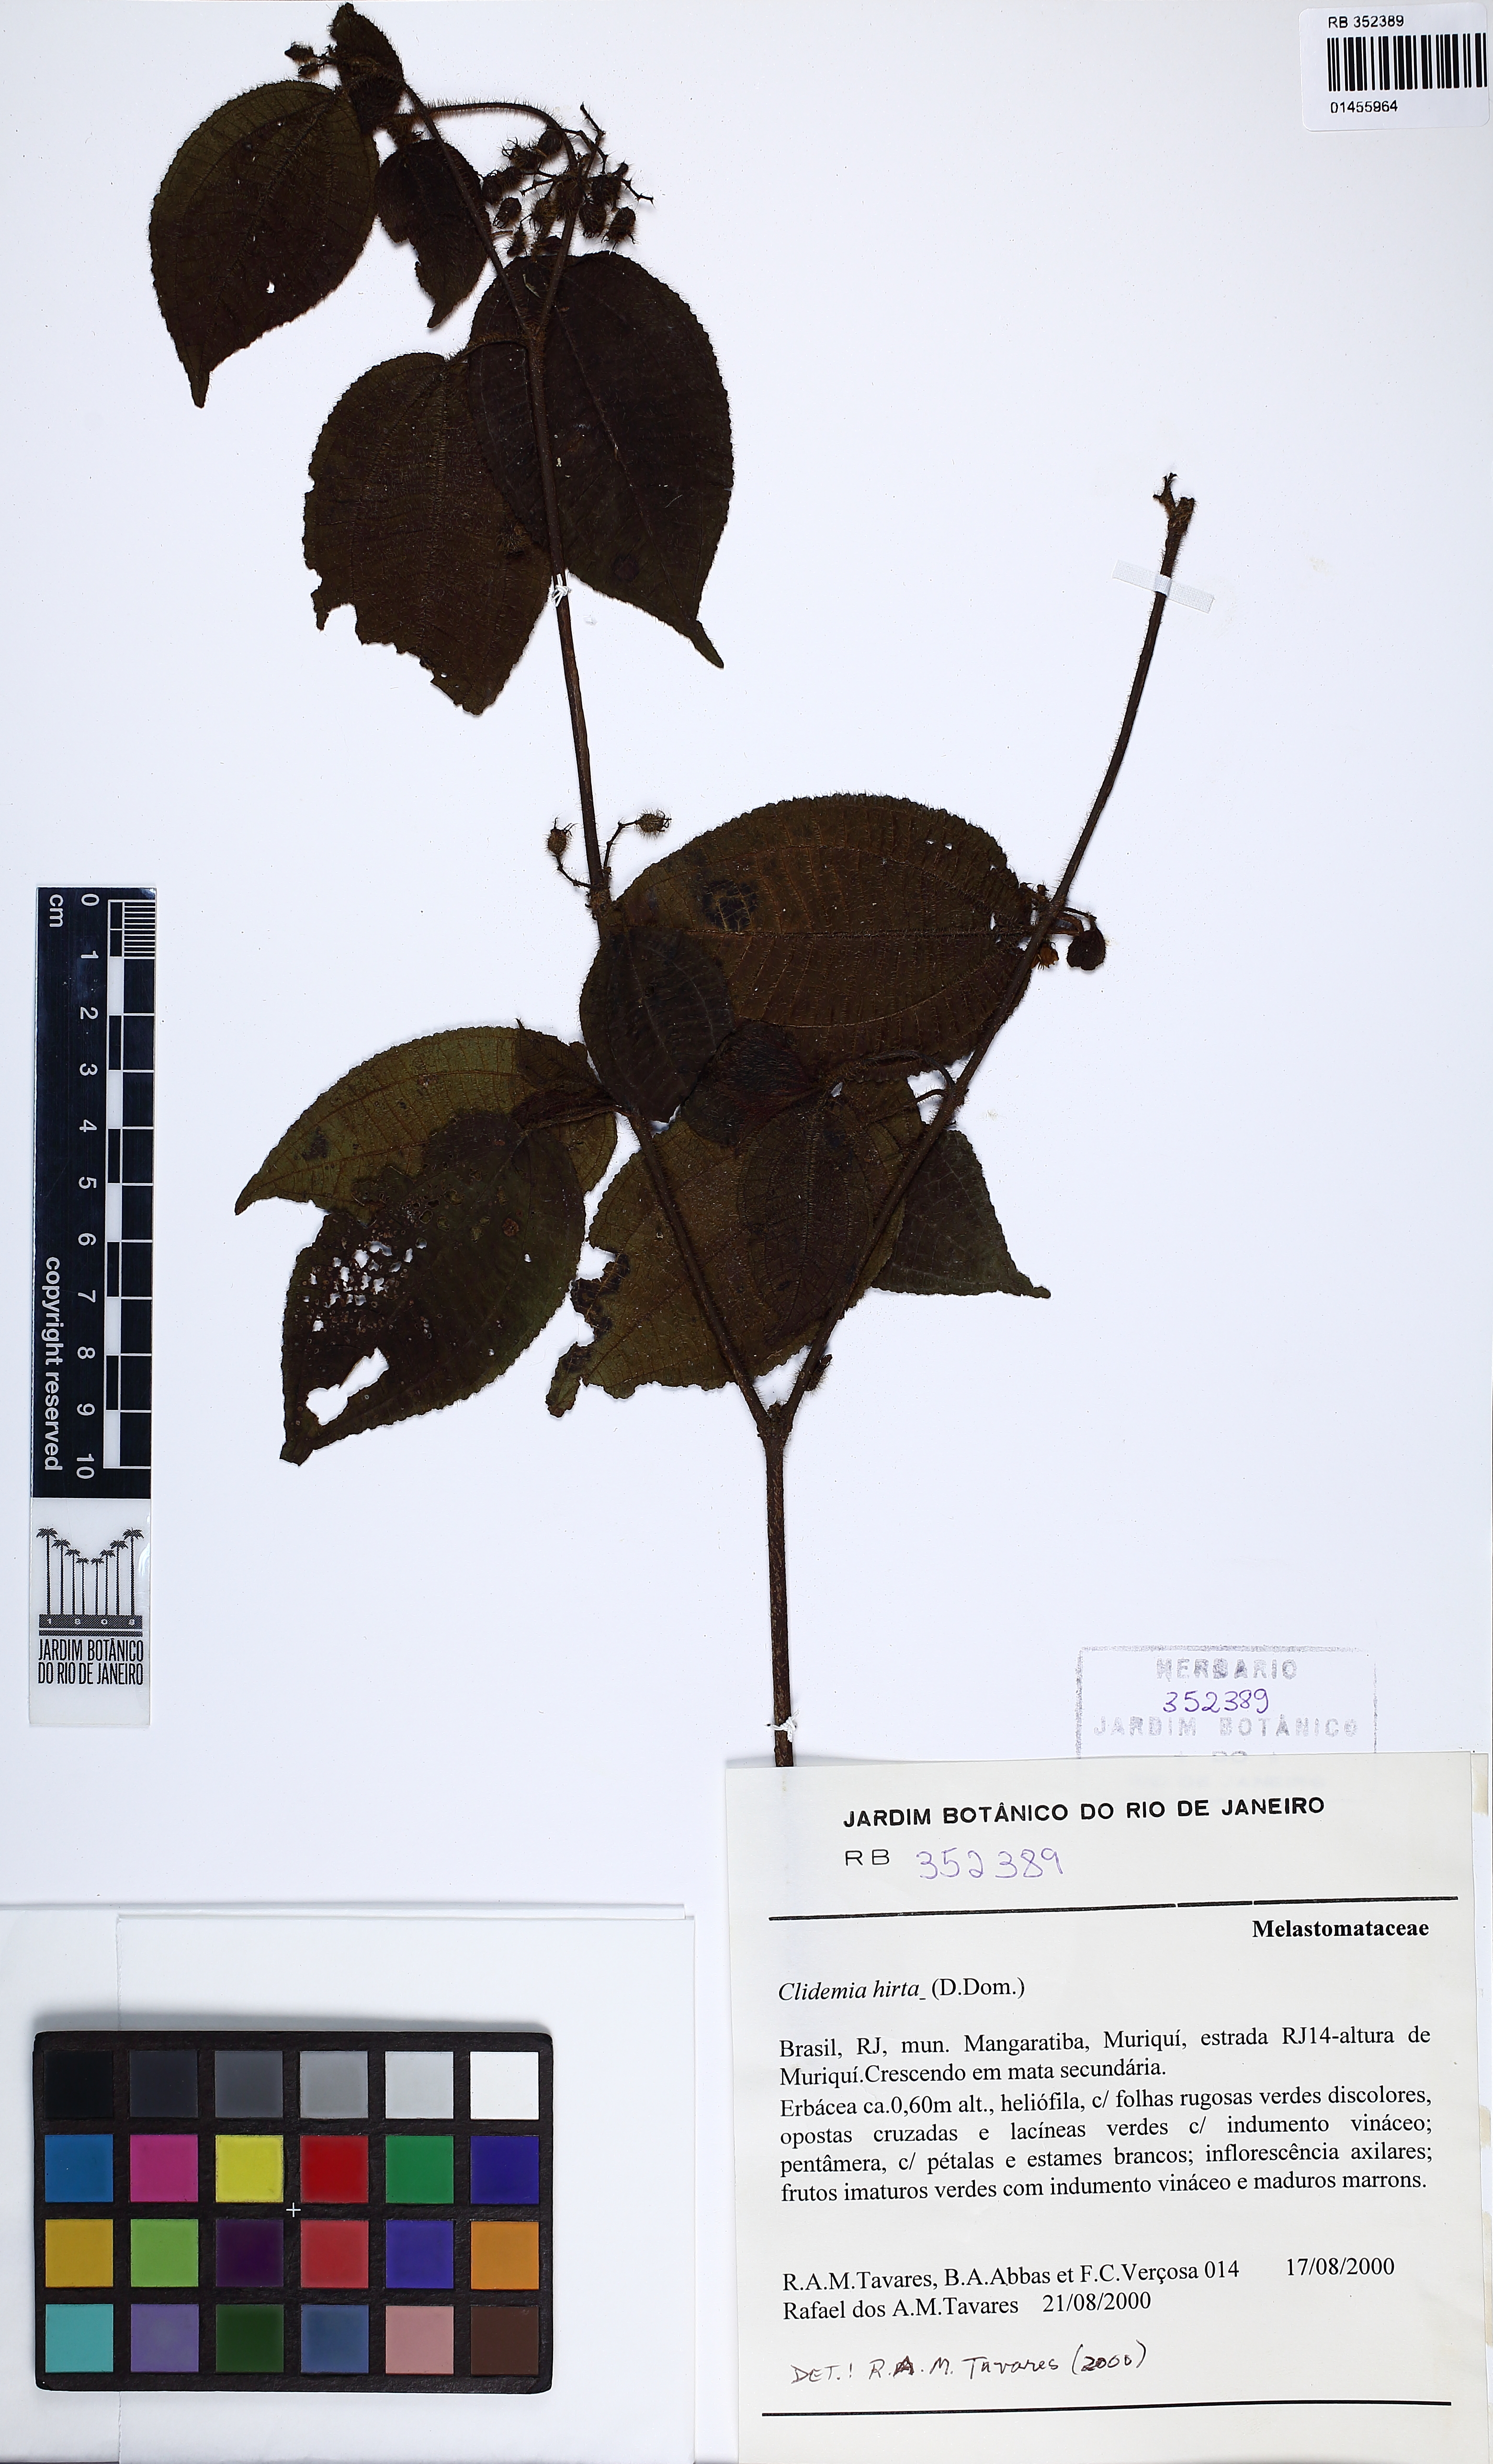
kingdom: Plantae
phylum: Tracheophyta
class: Magnoliopsida
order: Myrtales
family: Melastomataceae
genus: Miconia
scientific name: Miconia crenata
